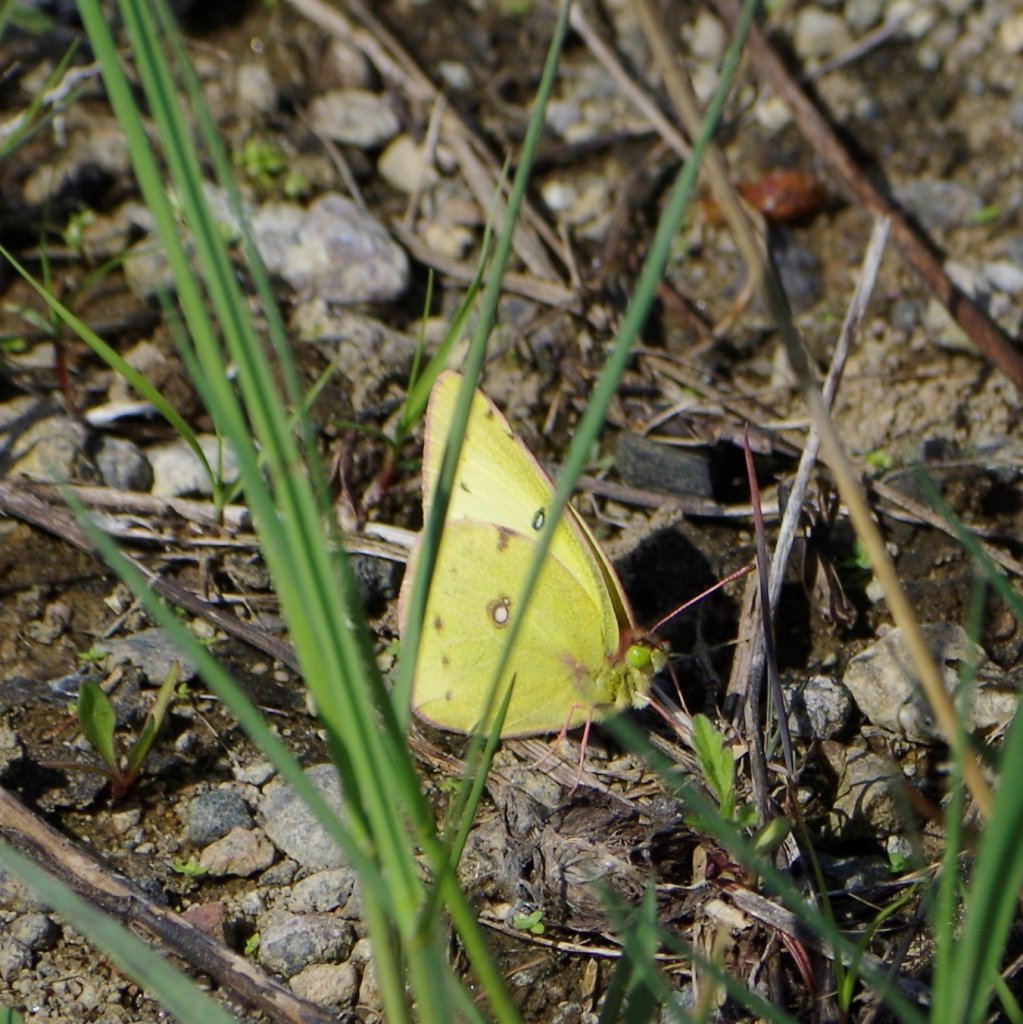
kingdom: Animalia
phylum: Arthropoda
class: Insecta
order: Lepidoptera
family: Pieridae
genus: Colias
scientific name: Colias philodice
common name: Clouded Sulphur
